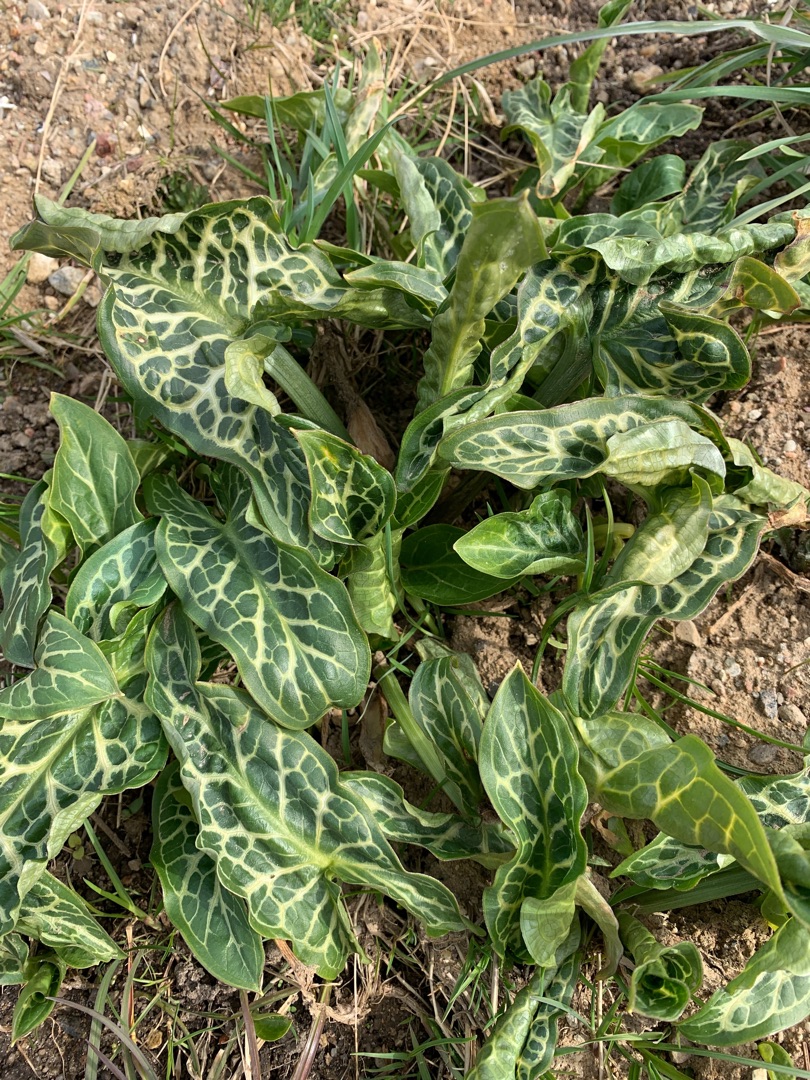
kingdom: Plantae
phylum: Tracheophyta
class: Liliopsida
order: Alismatales
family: Araceae
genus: Arum
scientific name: Arum italicum
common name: Italiensk arum
